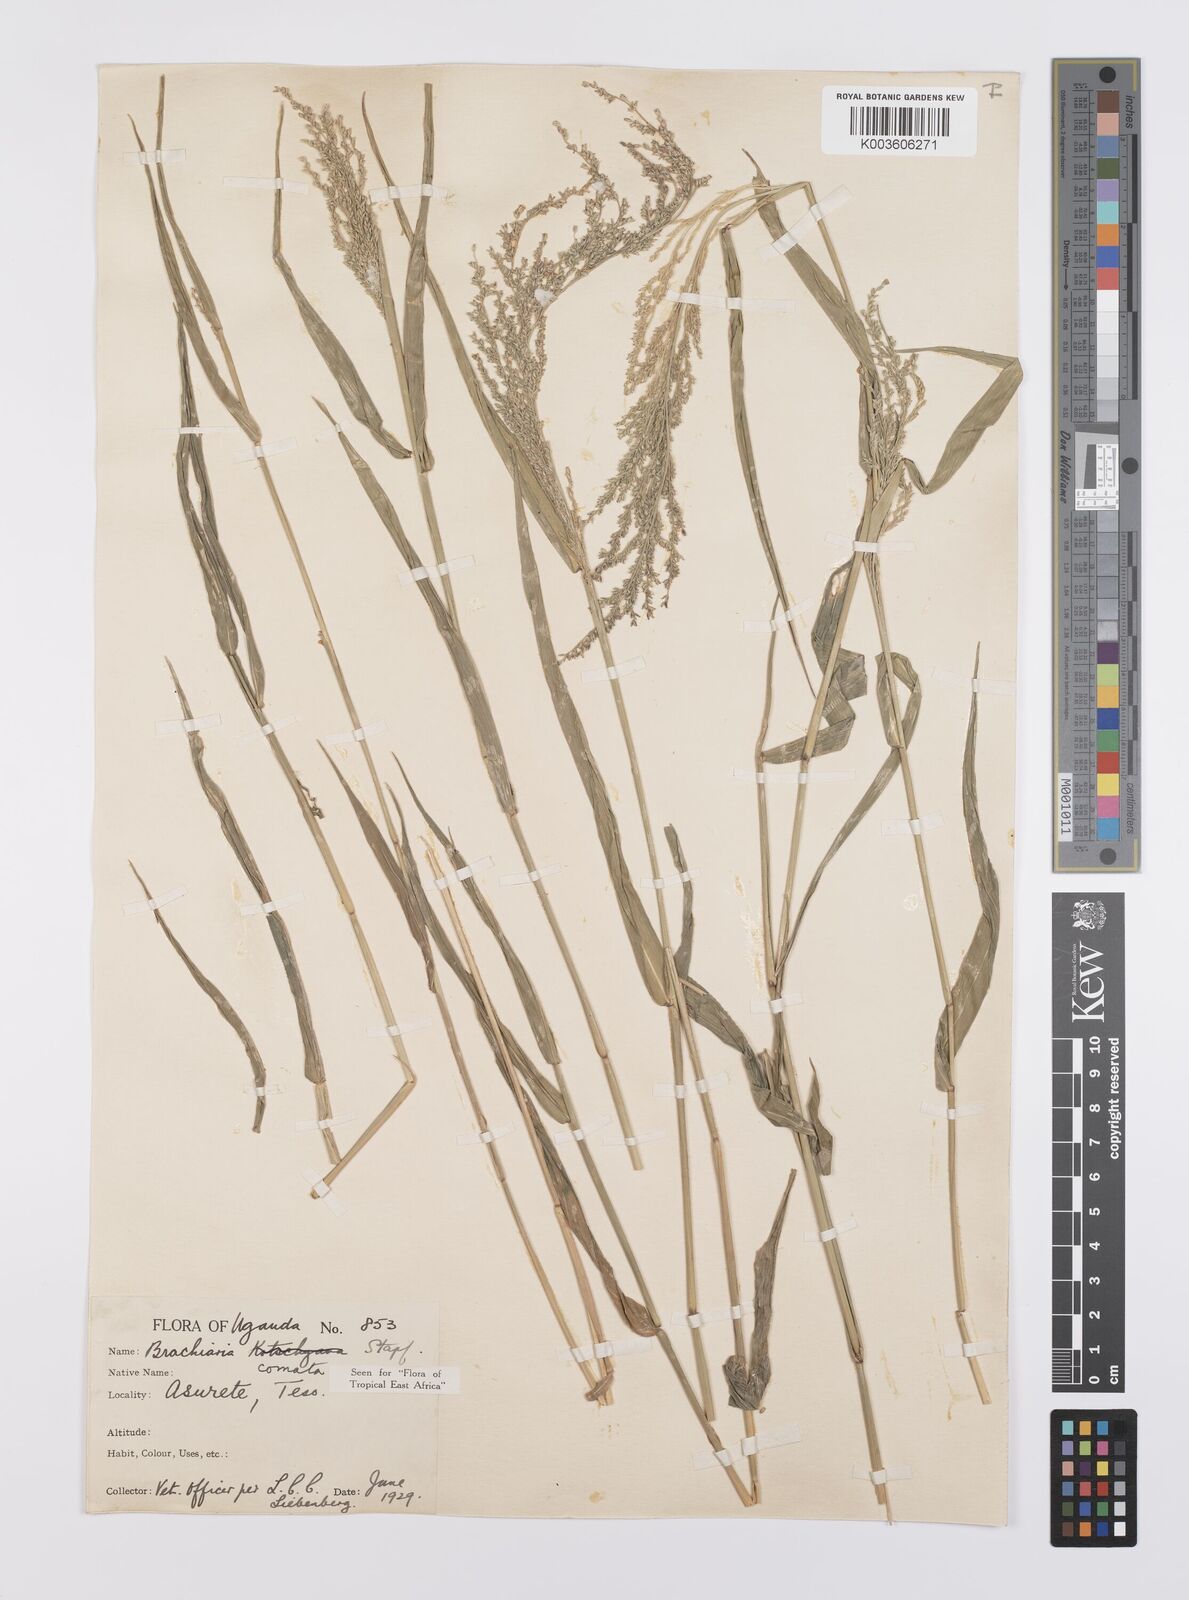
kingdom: Plantae
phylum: Tracheophyta
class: Liliopsida
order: Poales
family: Poaceae
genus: Urochloa
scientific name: Urochloa comata
